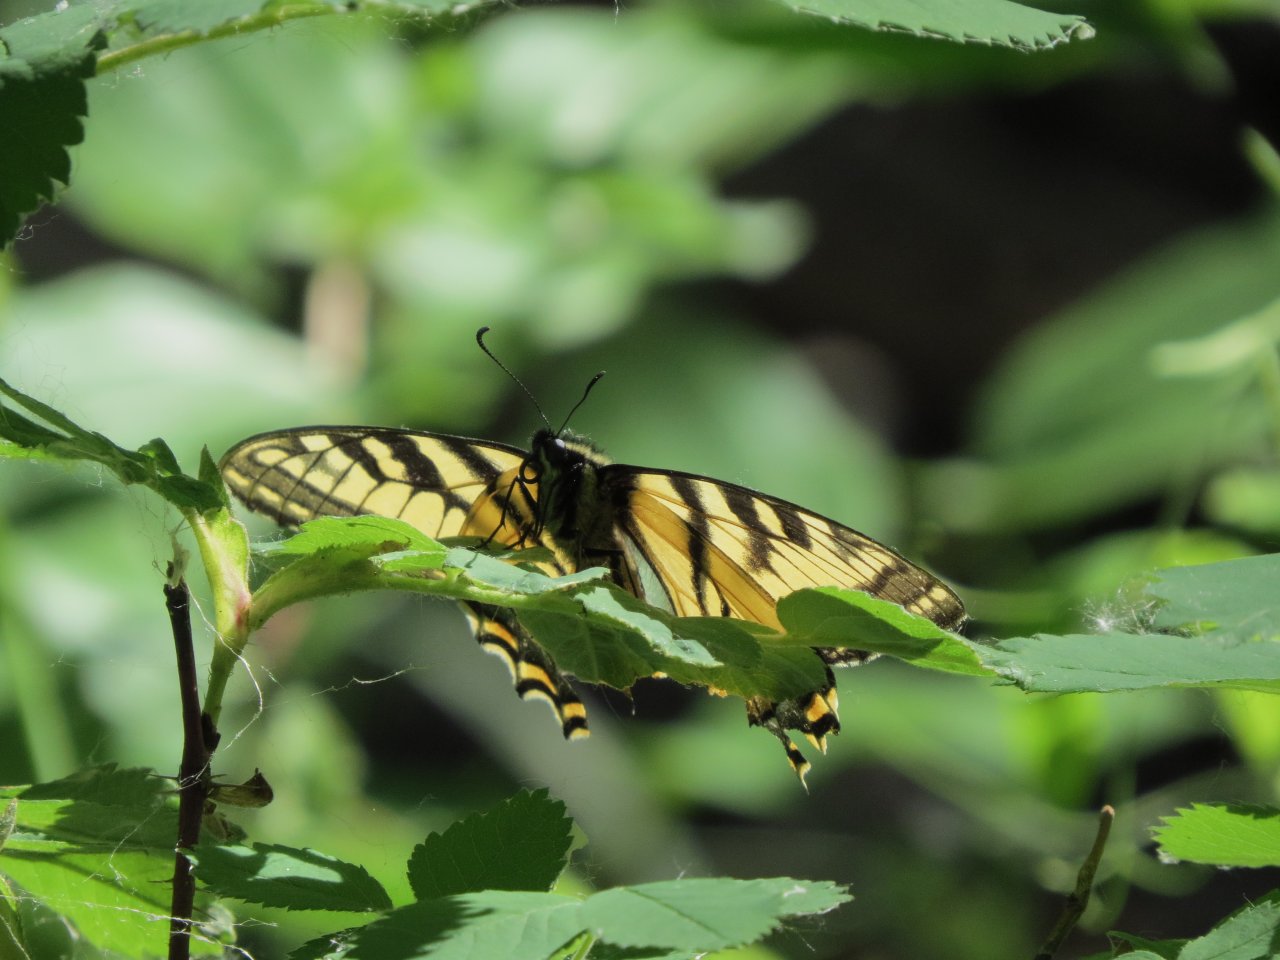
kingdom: Animalia
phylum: Arthropoda
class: Insecta
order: Lepidoptera
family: Papilionidae
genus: Pterourus
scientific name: Pterourus canadensis
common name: Canadian Tiger Swallowtail
